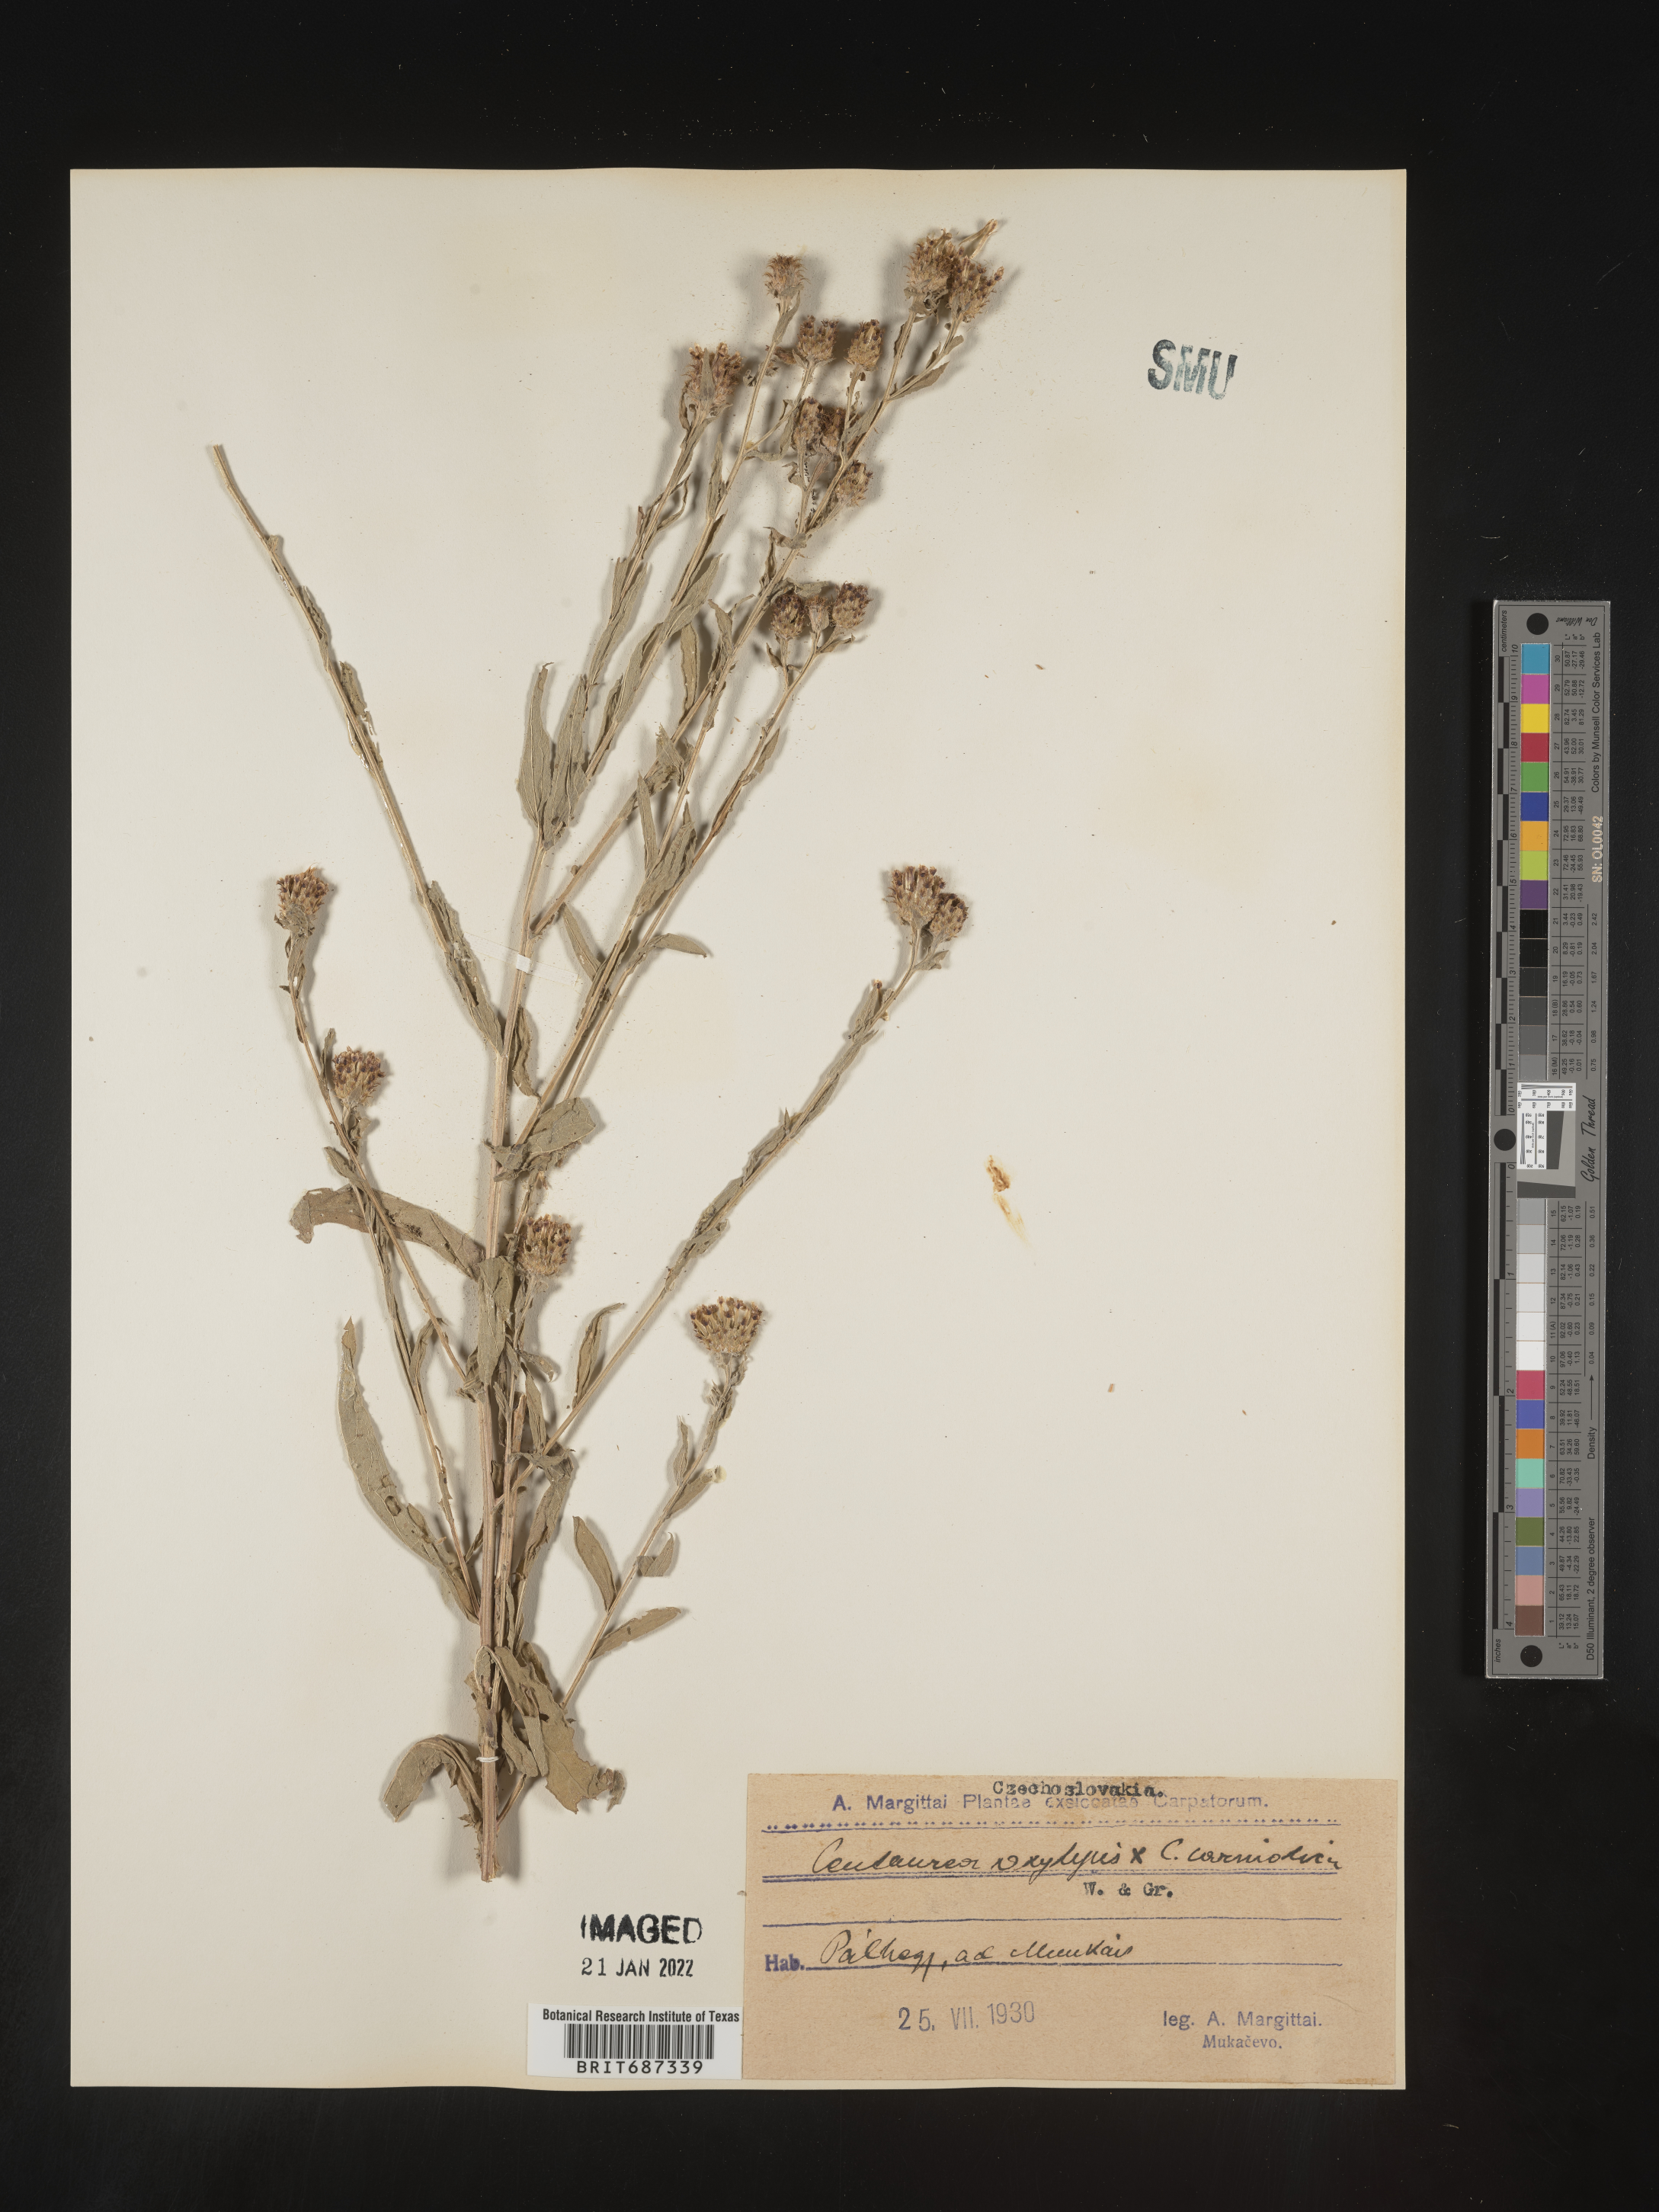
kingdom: Plantae
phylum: Tracheophyta
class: Magnoliopsida
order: Asterales
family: Asteraceae
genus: Centaurea
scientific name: Centaurea
